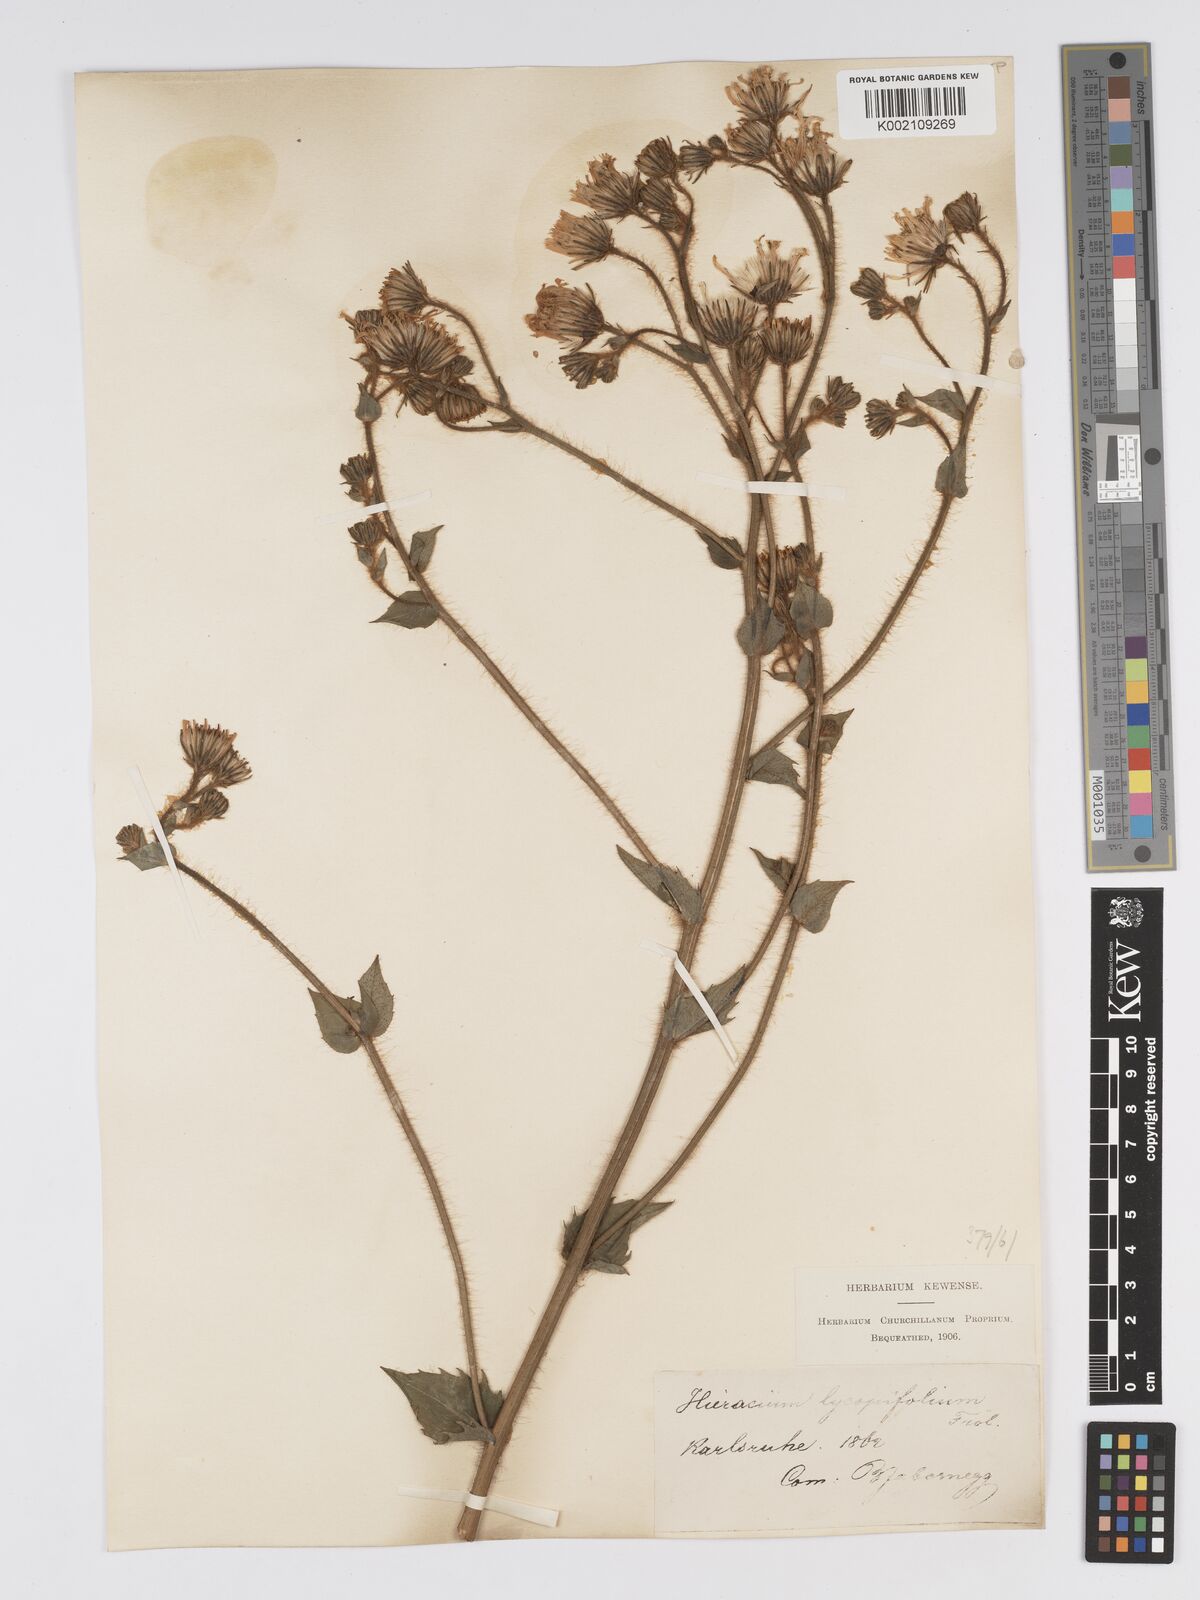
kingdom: Plantae
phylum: Tracheophyta
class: Magnoliopsida
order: Asterales
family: Asteraceae
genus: Hieracium
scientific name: Hieracium lycopifolium
